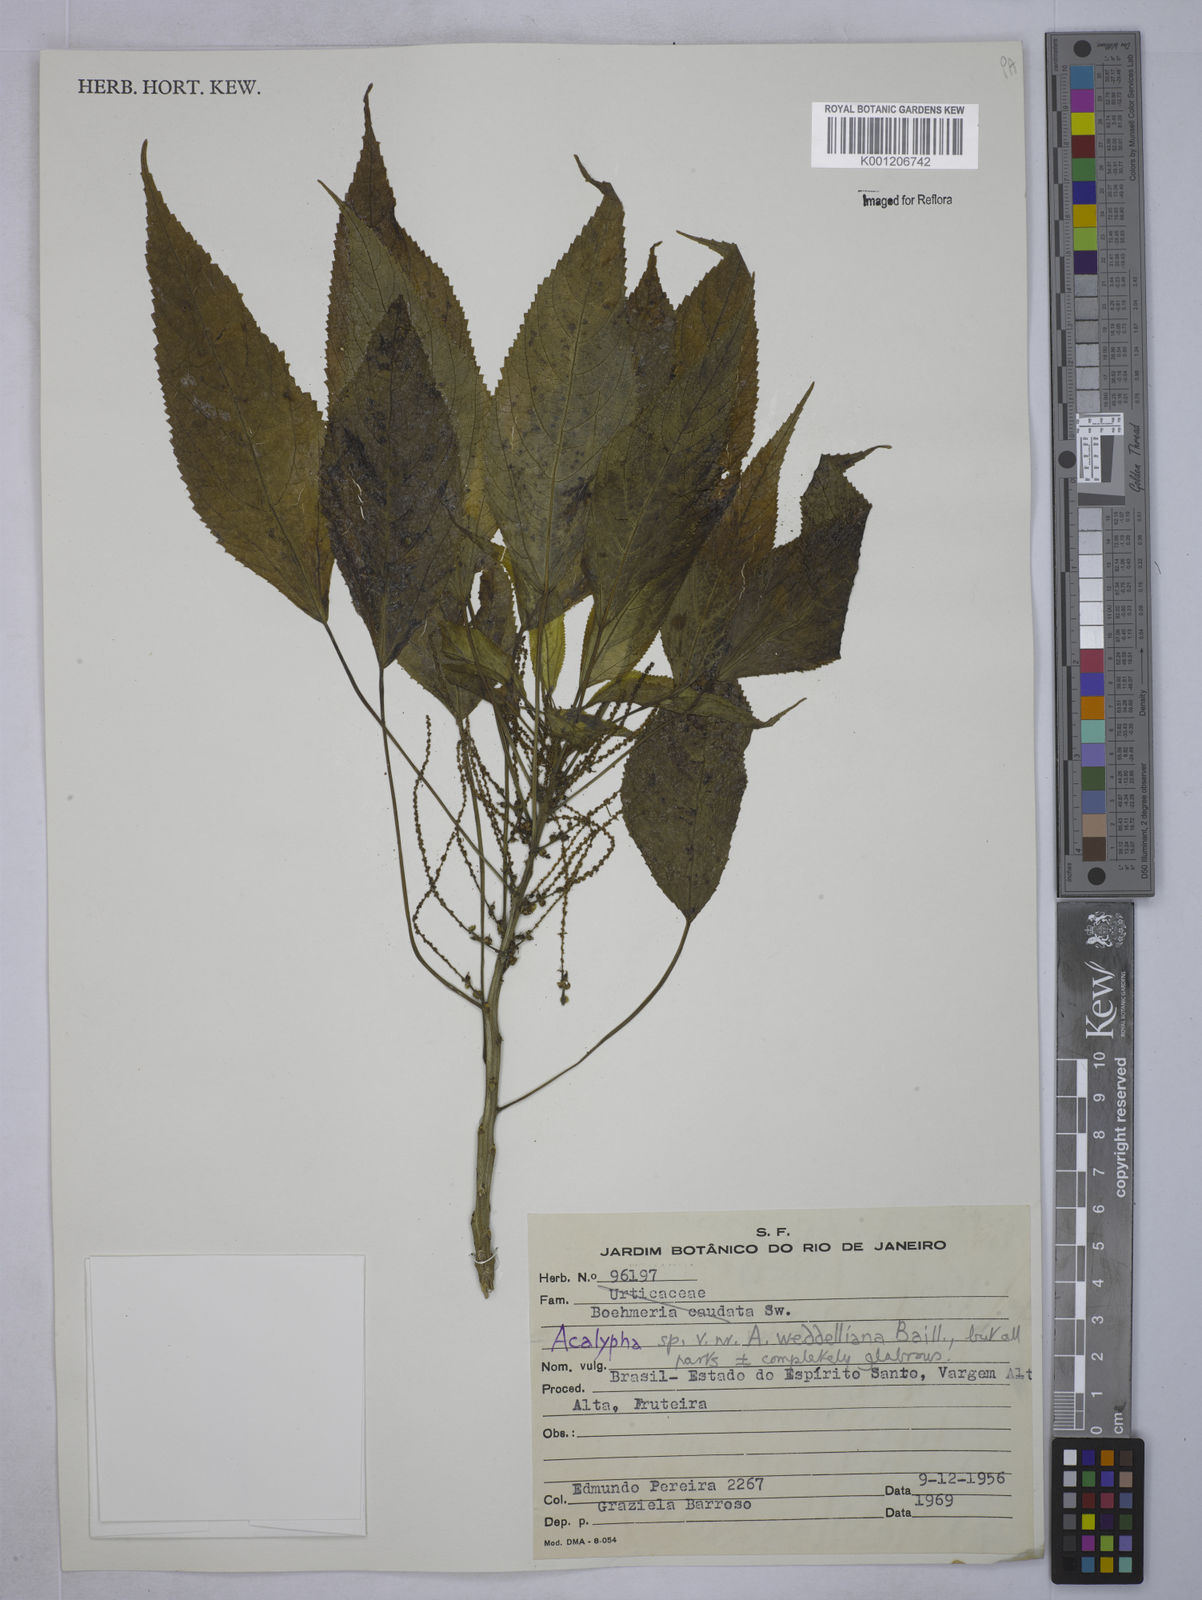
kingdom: Plantae
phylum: Tracheophyta
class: Magnoliopsida
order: Malpighiales
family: Euphorbiaceae
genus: Acalypha
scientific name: Acalypha weddelliana
